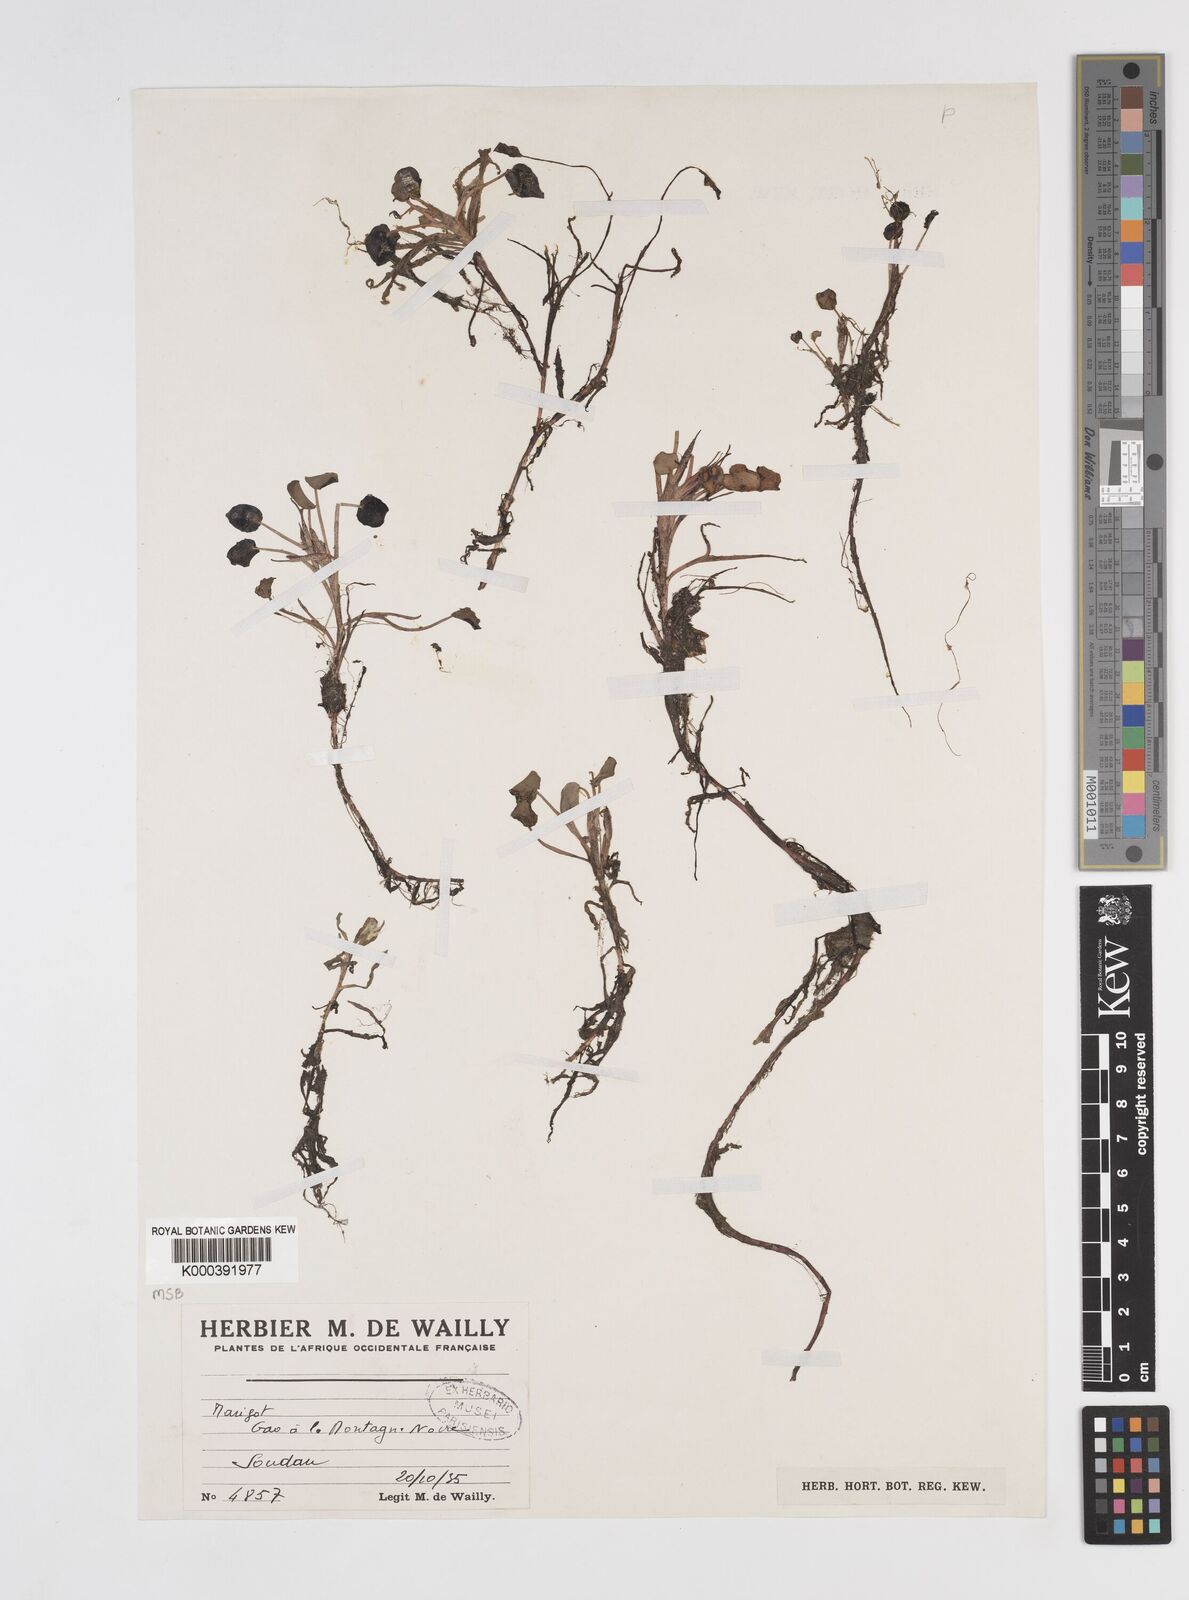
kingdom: Plantae
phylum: Tracheophyta
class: Liliopsida
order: Commelinales
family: Pontederiaceae
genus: Pontederia
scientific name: Pontederia diversifolia
